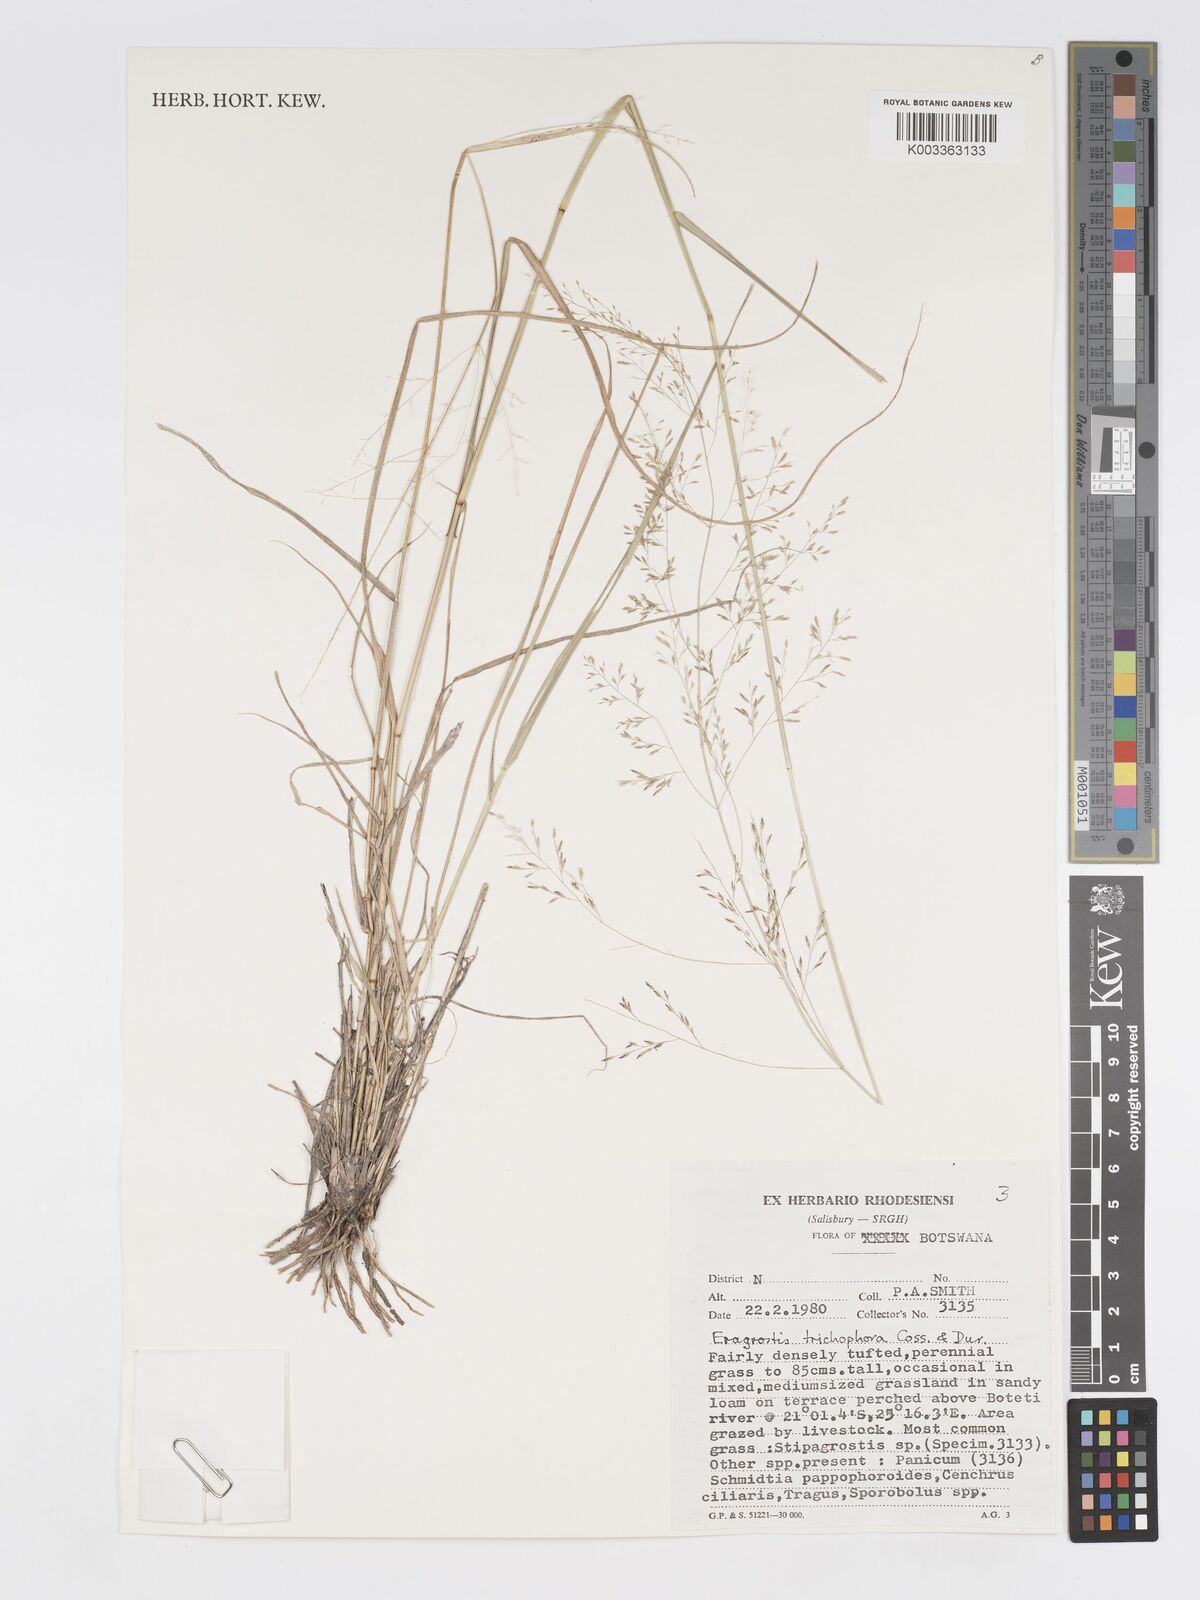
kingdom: Plantae
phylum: Tracheophyta
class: Liliopsida
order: Poales
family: Poaceae
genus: Eragrostis
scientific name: Eragrostis cylindriflora
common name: Cylinderflower lovegrass
